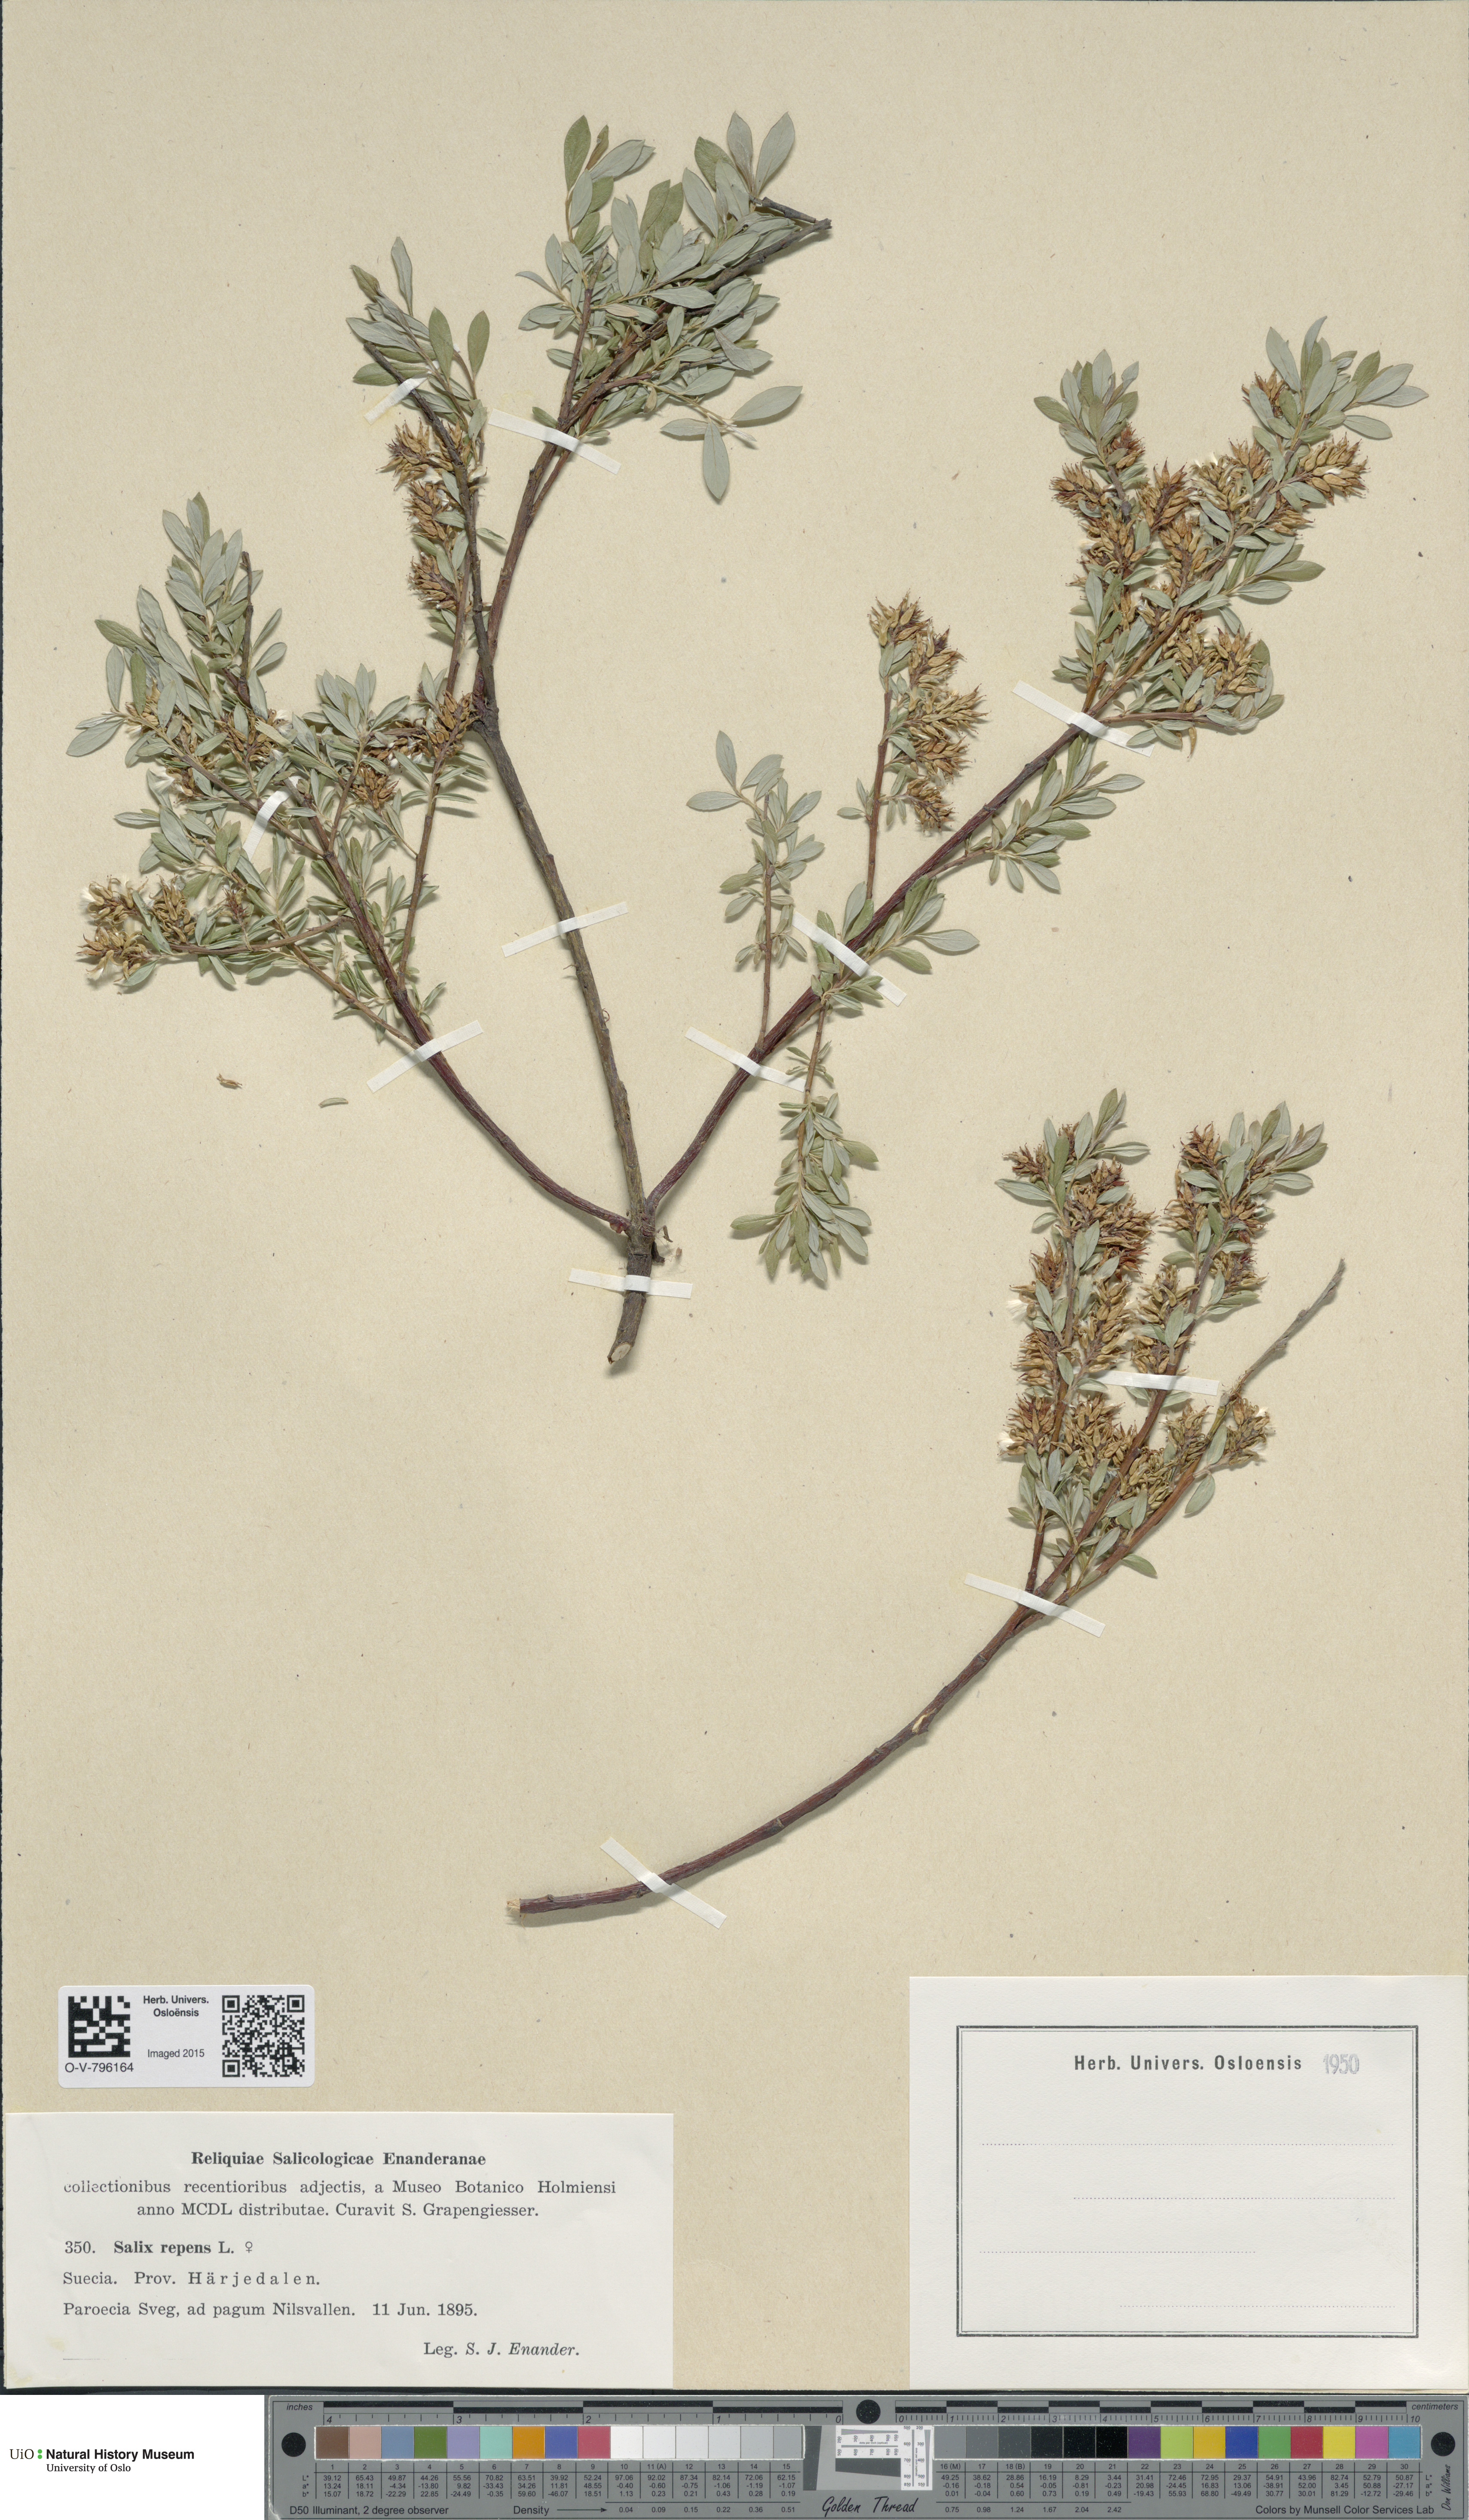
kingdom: Plantae
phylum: Tracheophyta
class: Magnoliopsida
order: Malpighiales
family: Salicaceae
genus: Salix
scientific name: Salix repens
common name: Creeping willow
